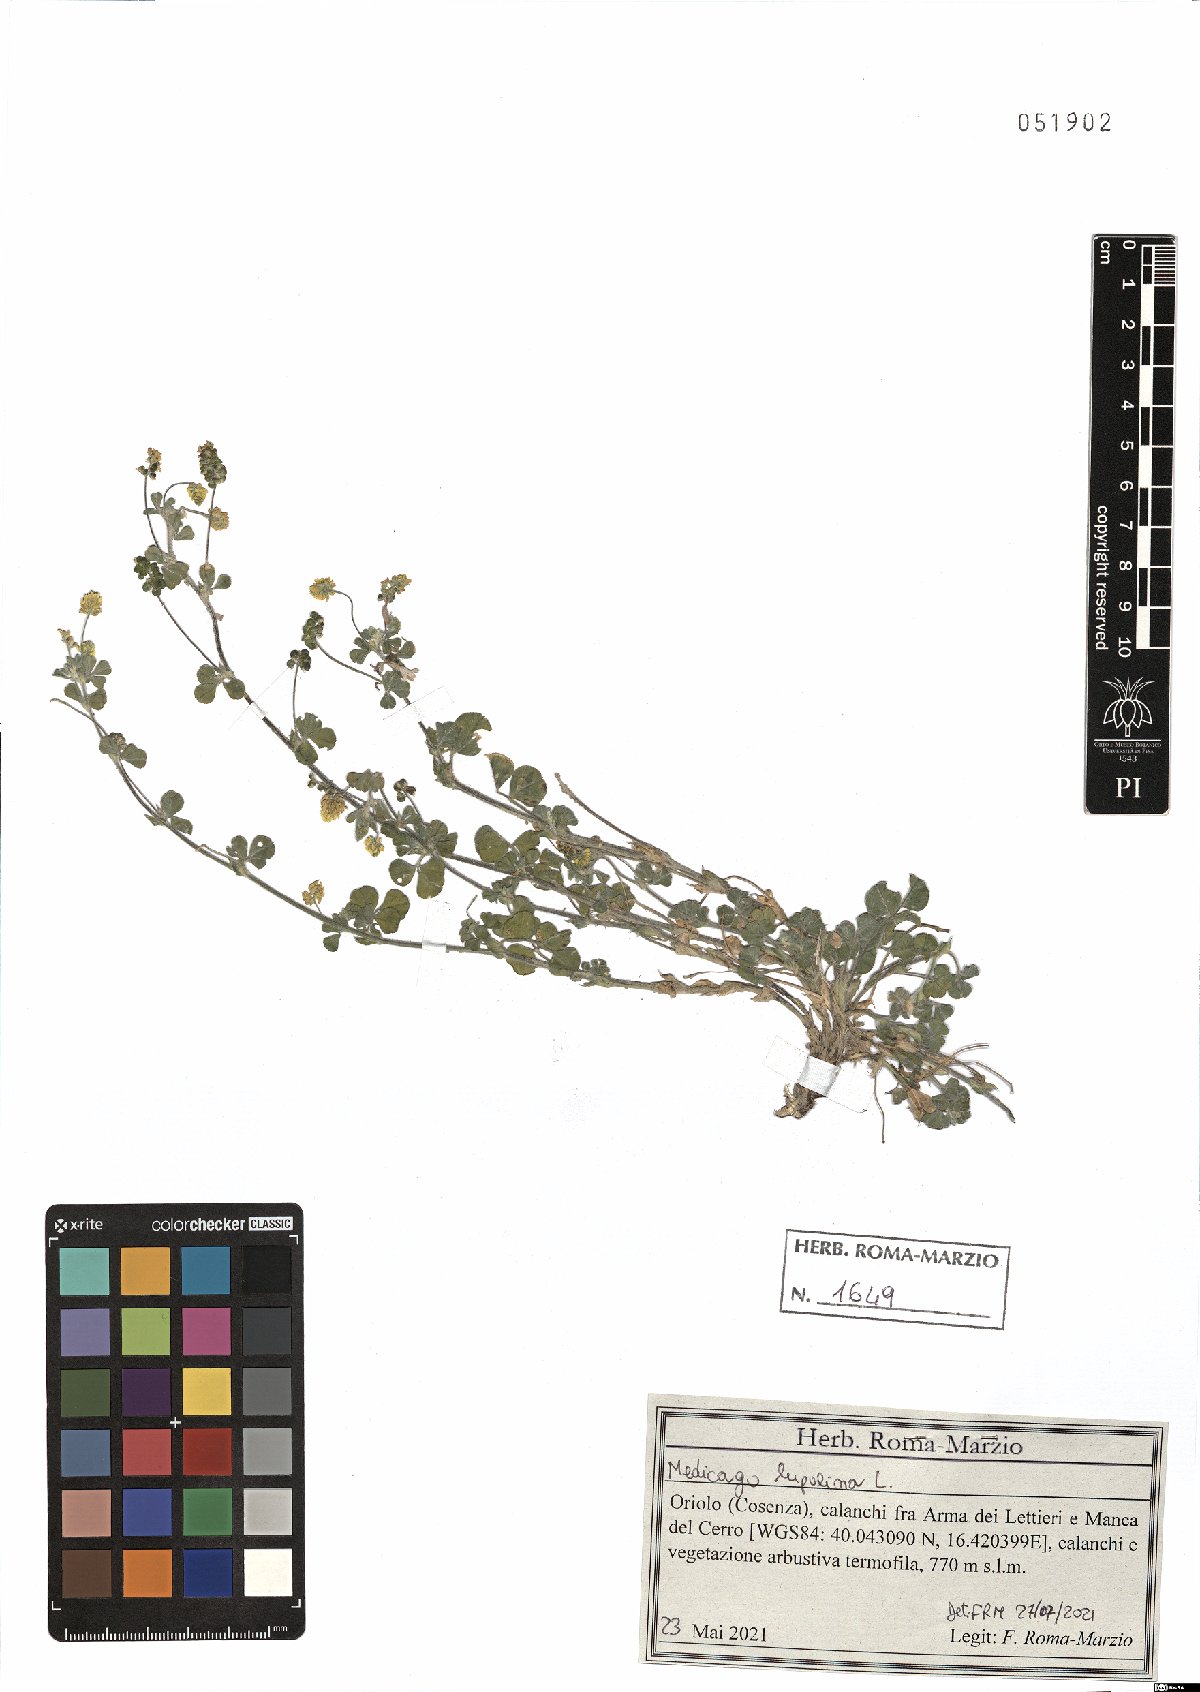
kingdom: Plantae
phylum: Tracheophyta
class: Magnoliopsida
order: Fabales
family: Fabaceae
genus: Medicago
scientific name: Medicago lupulina
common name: Black medick
